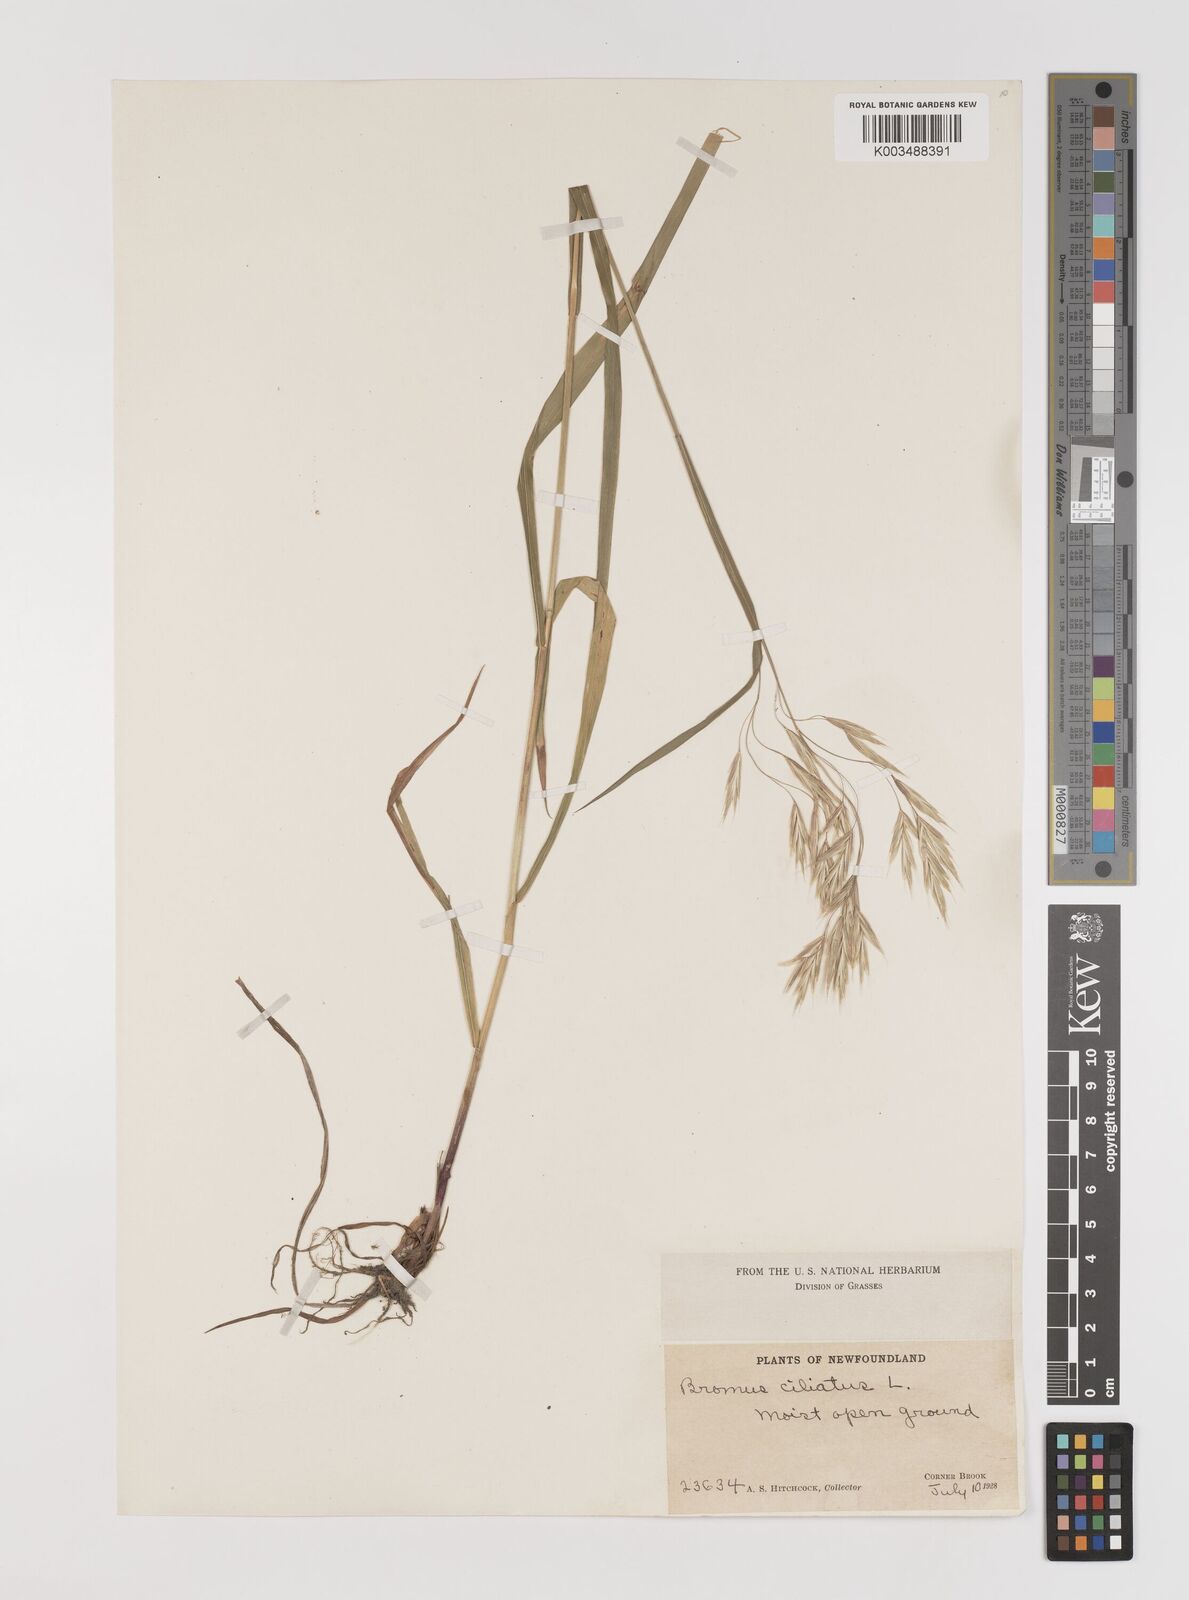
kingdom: Plantae
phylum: Tracheophyta
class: Liliopsida
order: Poales
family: Poaceae
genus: Bromus
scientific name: Bromus ciliatus
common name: Fringe brome
